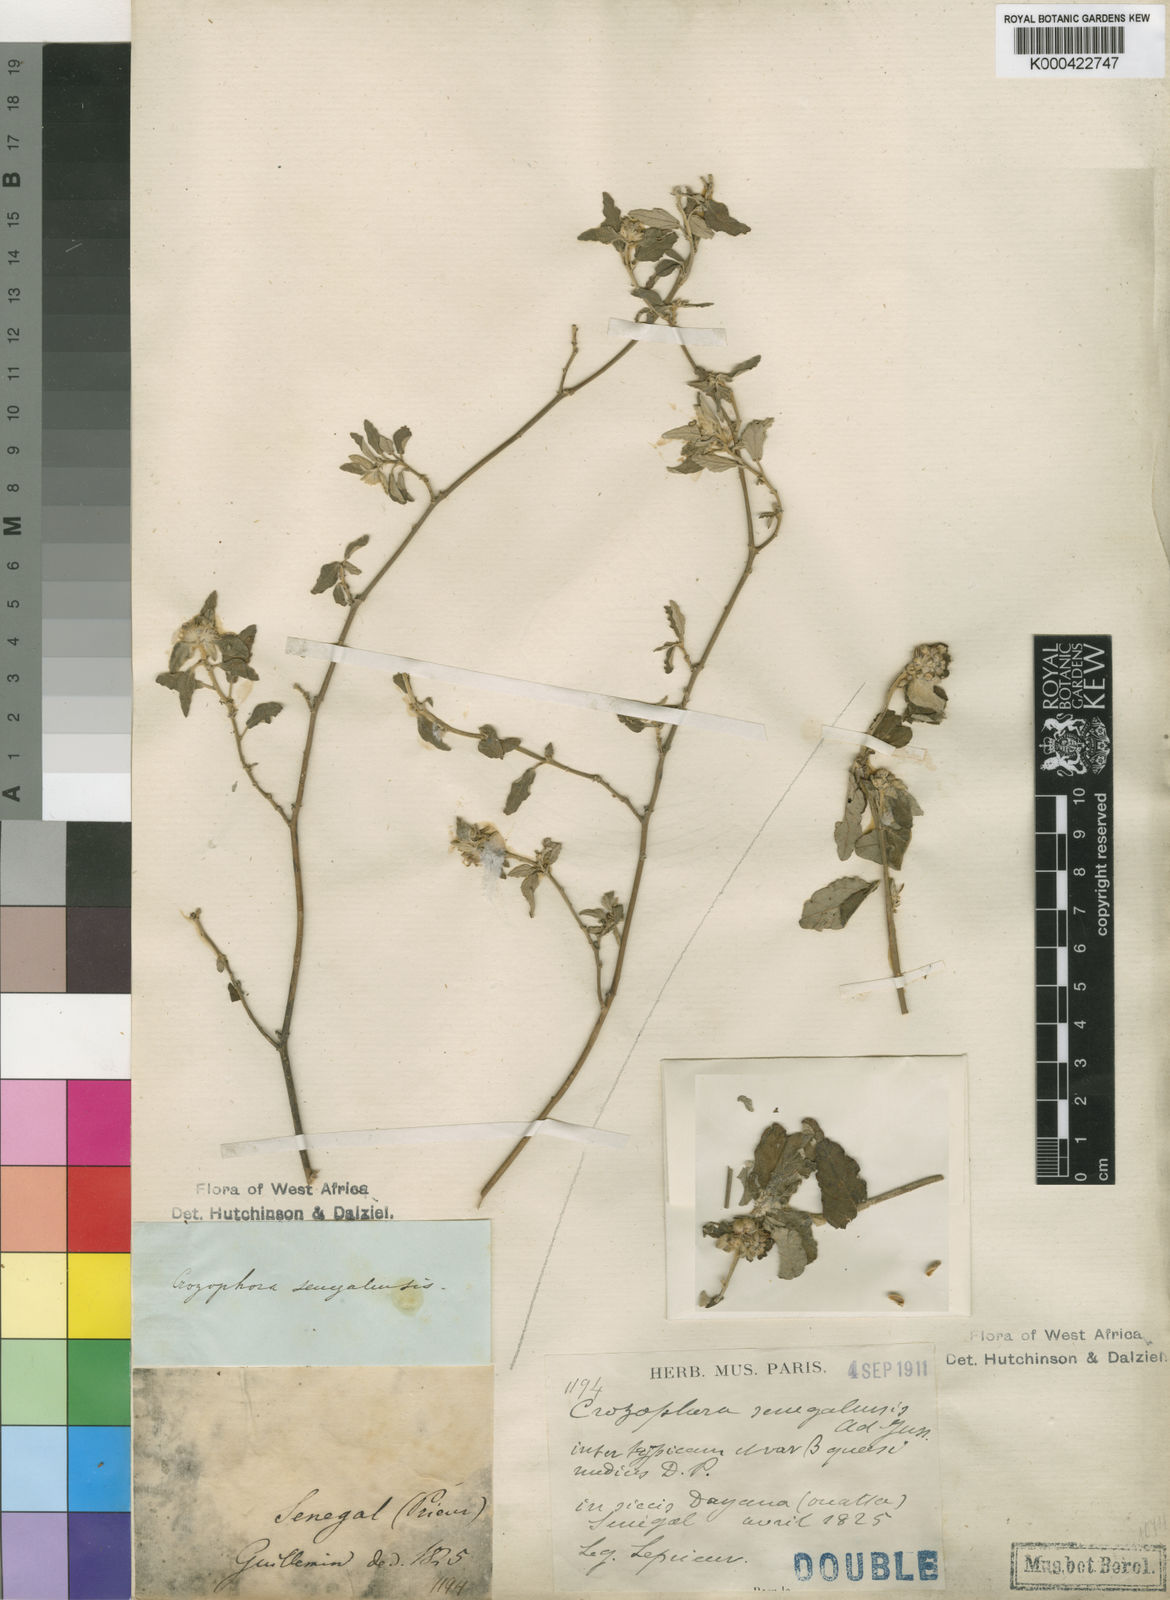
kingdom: Plantae
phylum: Tracheophyta
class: Magnoliopsida
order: Malpighiales
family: Euphorbiaceae
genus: Chrozophora
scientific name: Chrozophora senegalensis
